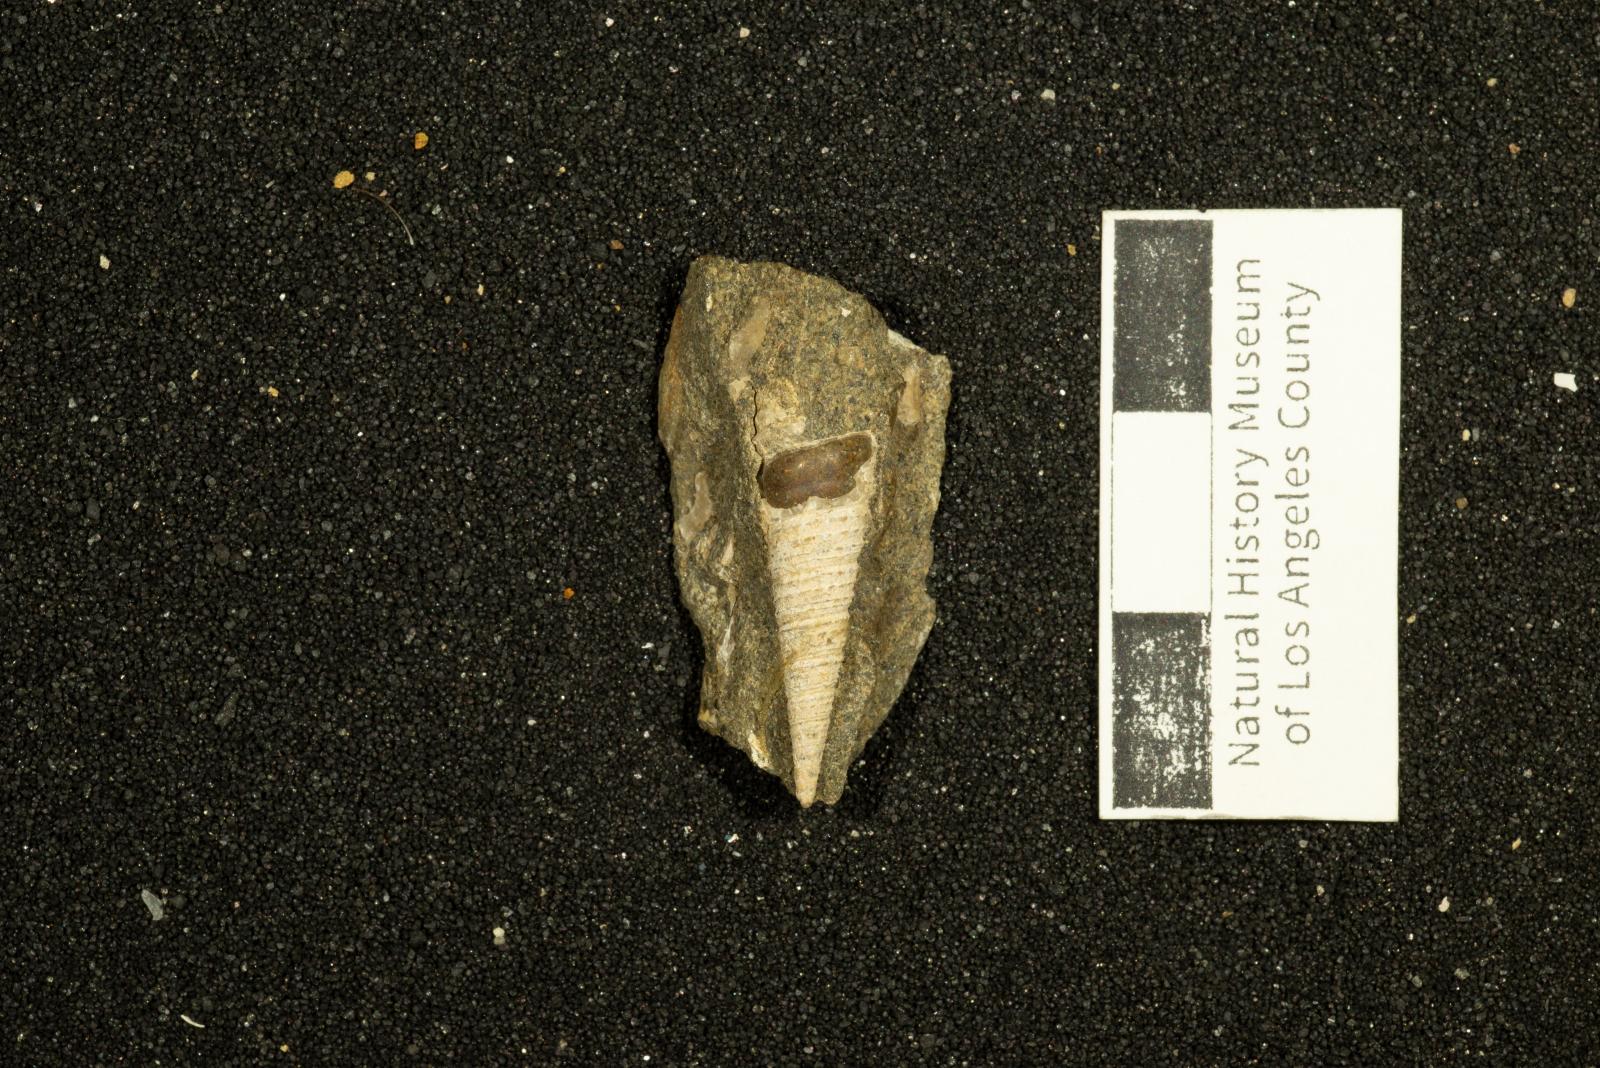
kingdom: Animalia
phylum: Mollusca
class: Gastropoda
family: Turritellidae
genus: Turritella
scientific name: Turritella hearni
